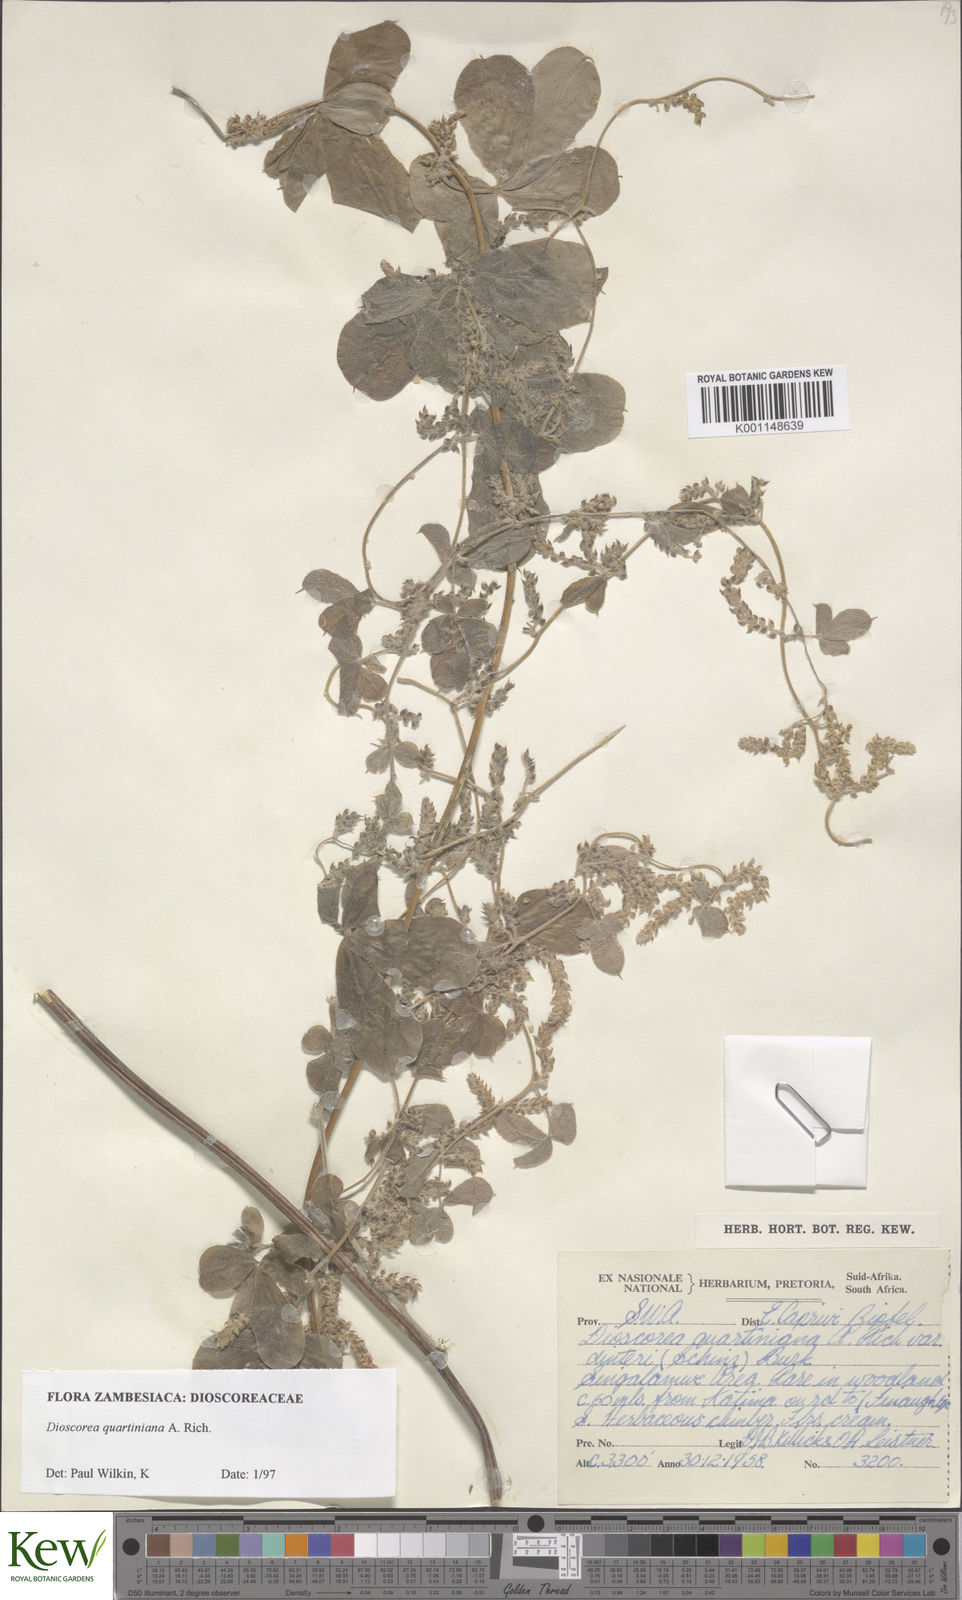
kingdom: Plantae
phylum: Tracheophyta
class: Liliopsida
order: Dioscoreales
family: Dioscoreaceae
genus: Dioscorea
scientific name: Dioscorea quartiniana
